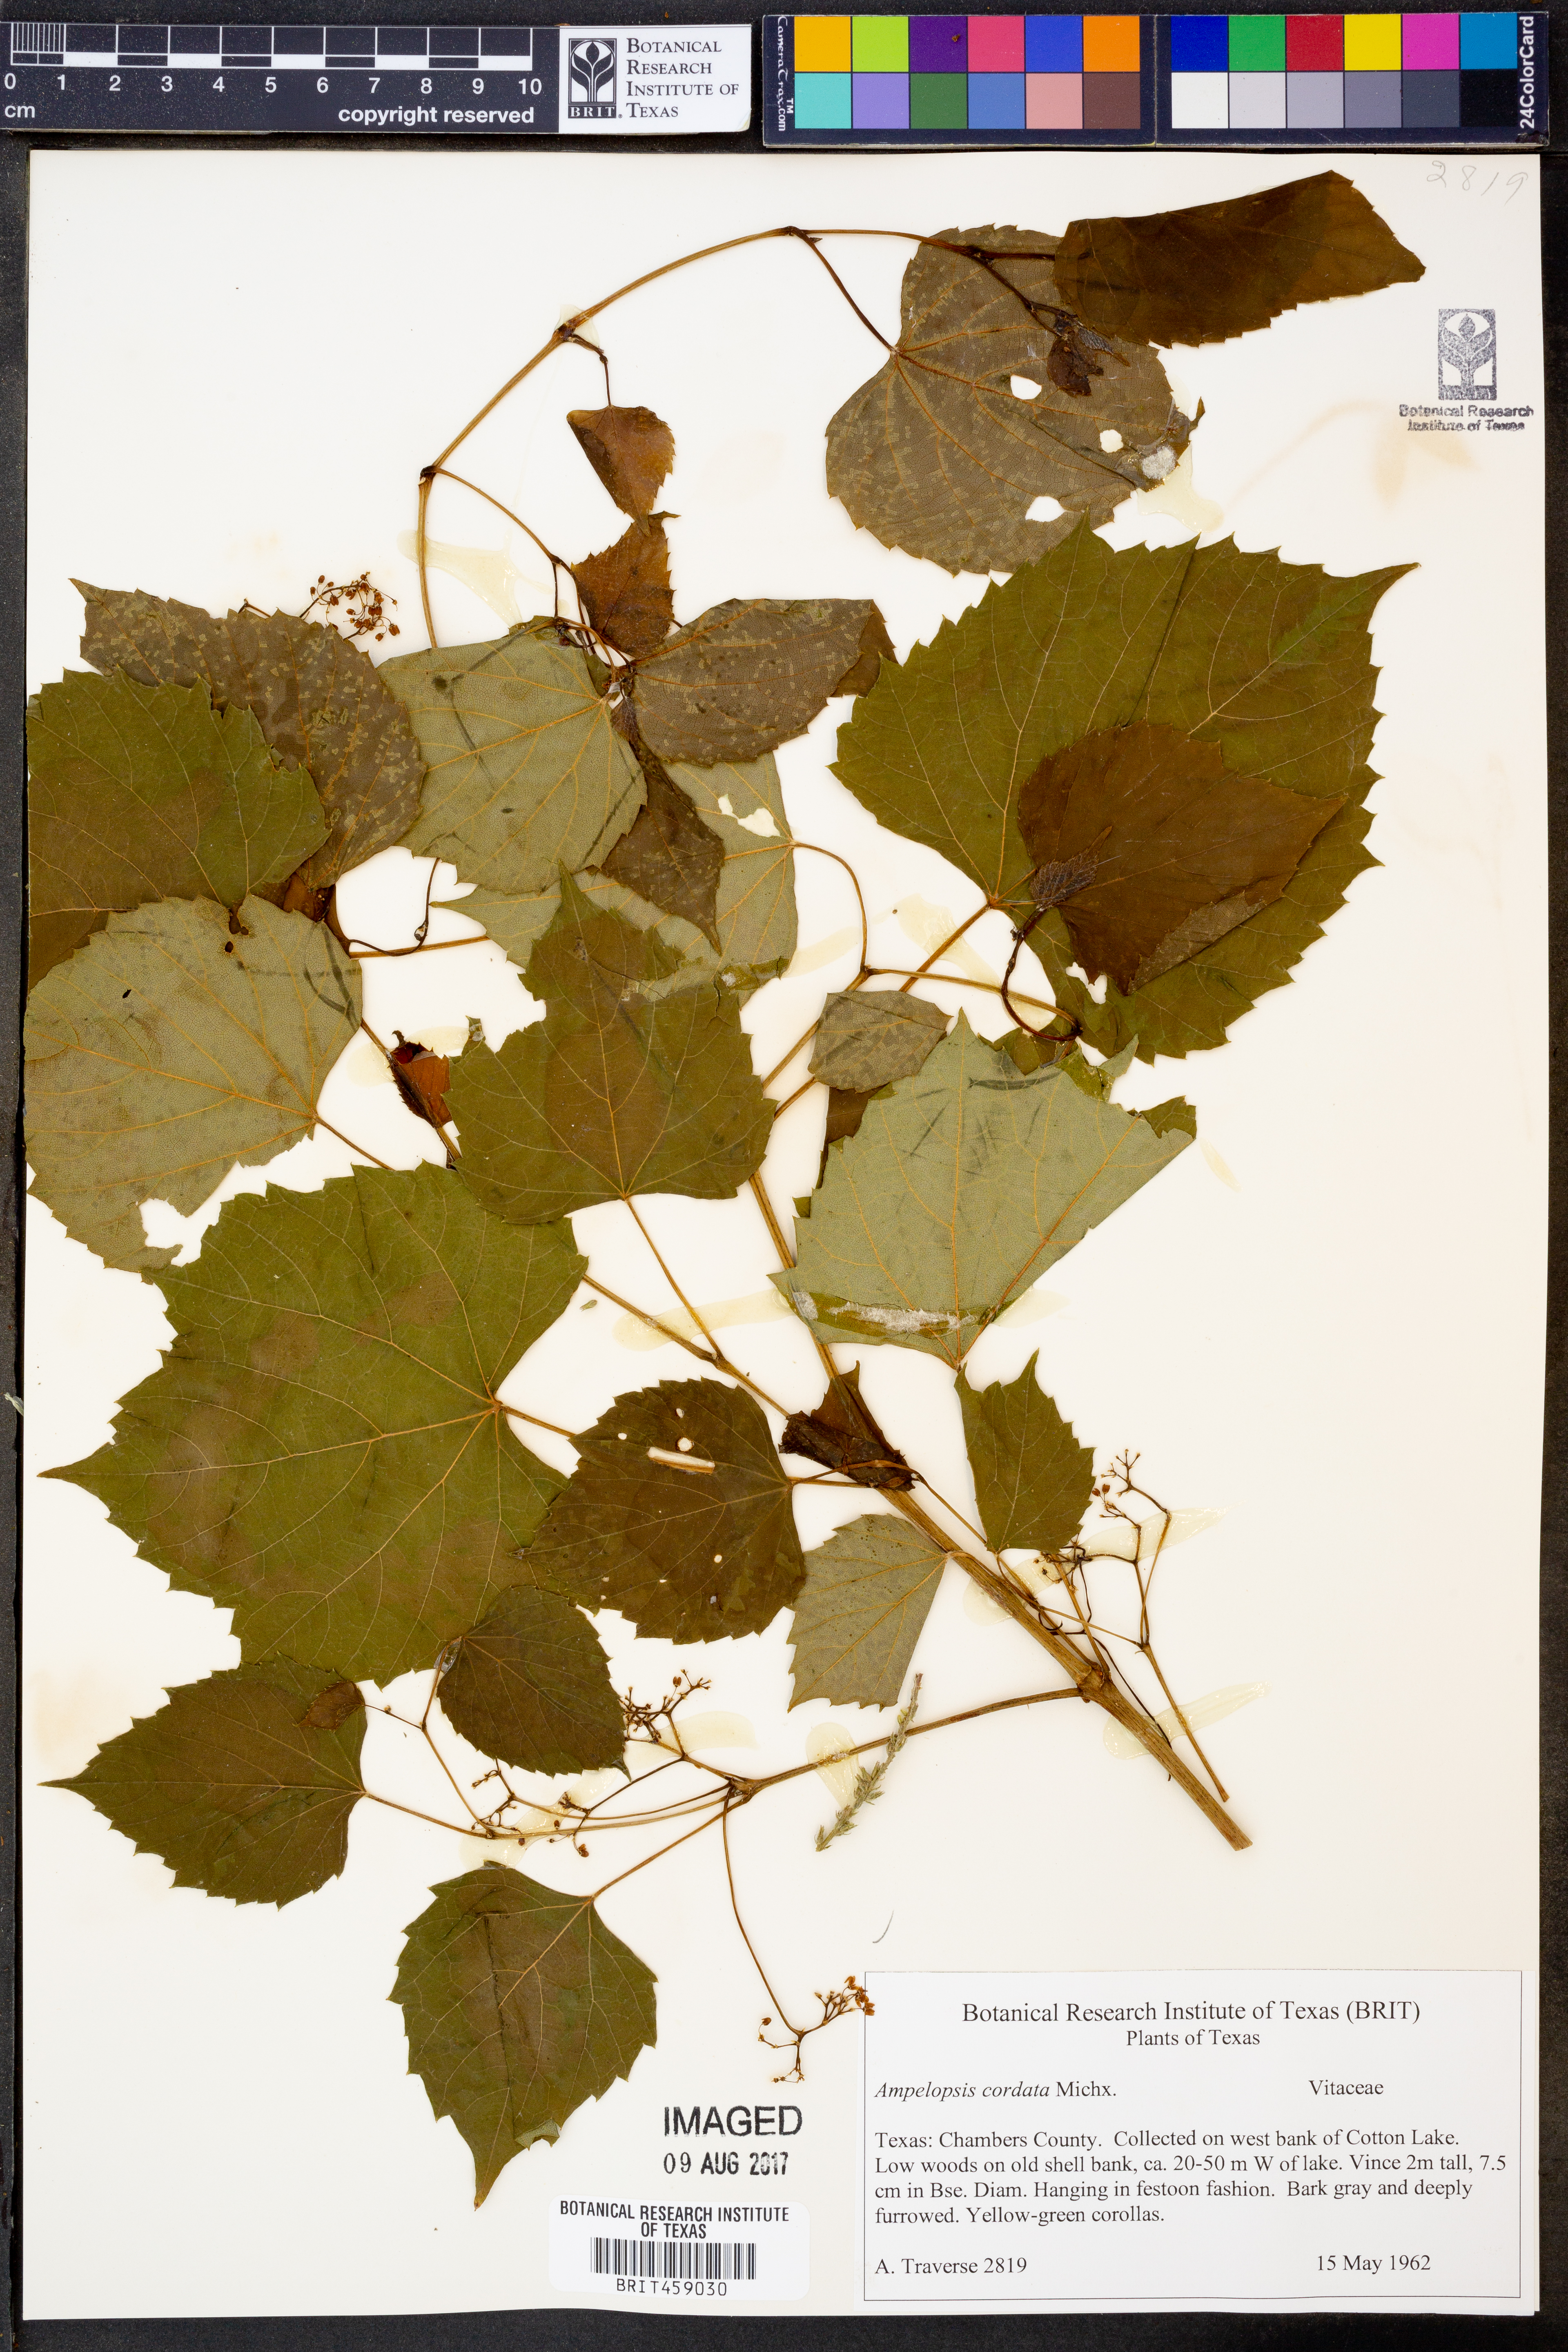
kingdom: Plantae
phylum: Tracheophyta
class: Magnoliopsida
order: Vitales
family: Vitaceae
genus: Ampelopsis
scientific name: Ampelopsis cordata
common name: Heart-leaf ampelopsis
